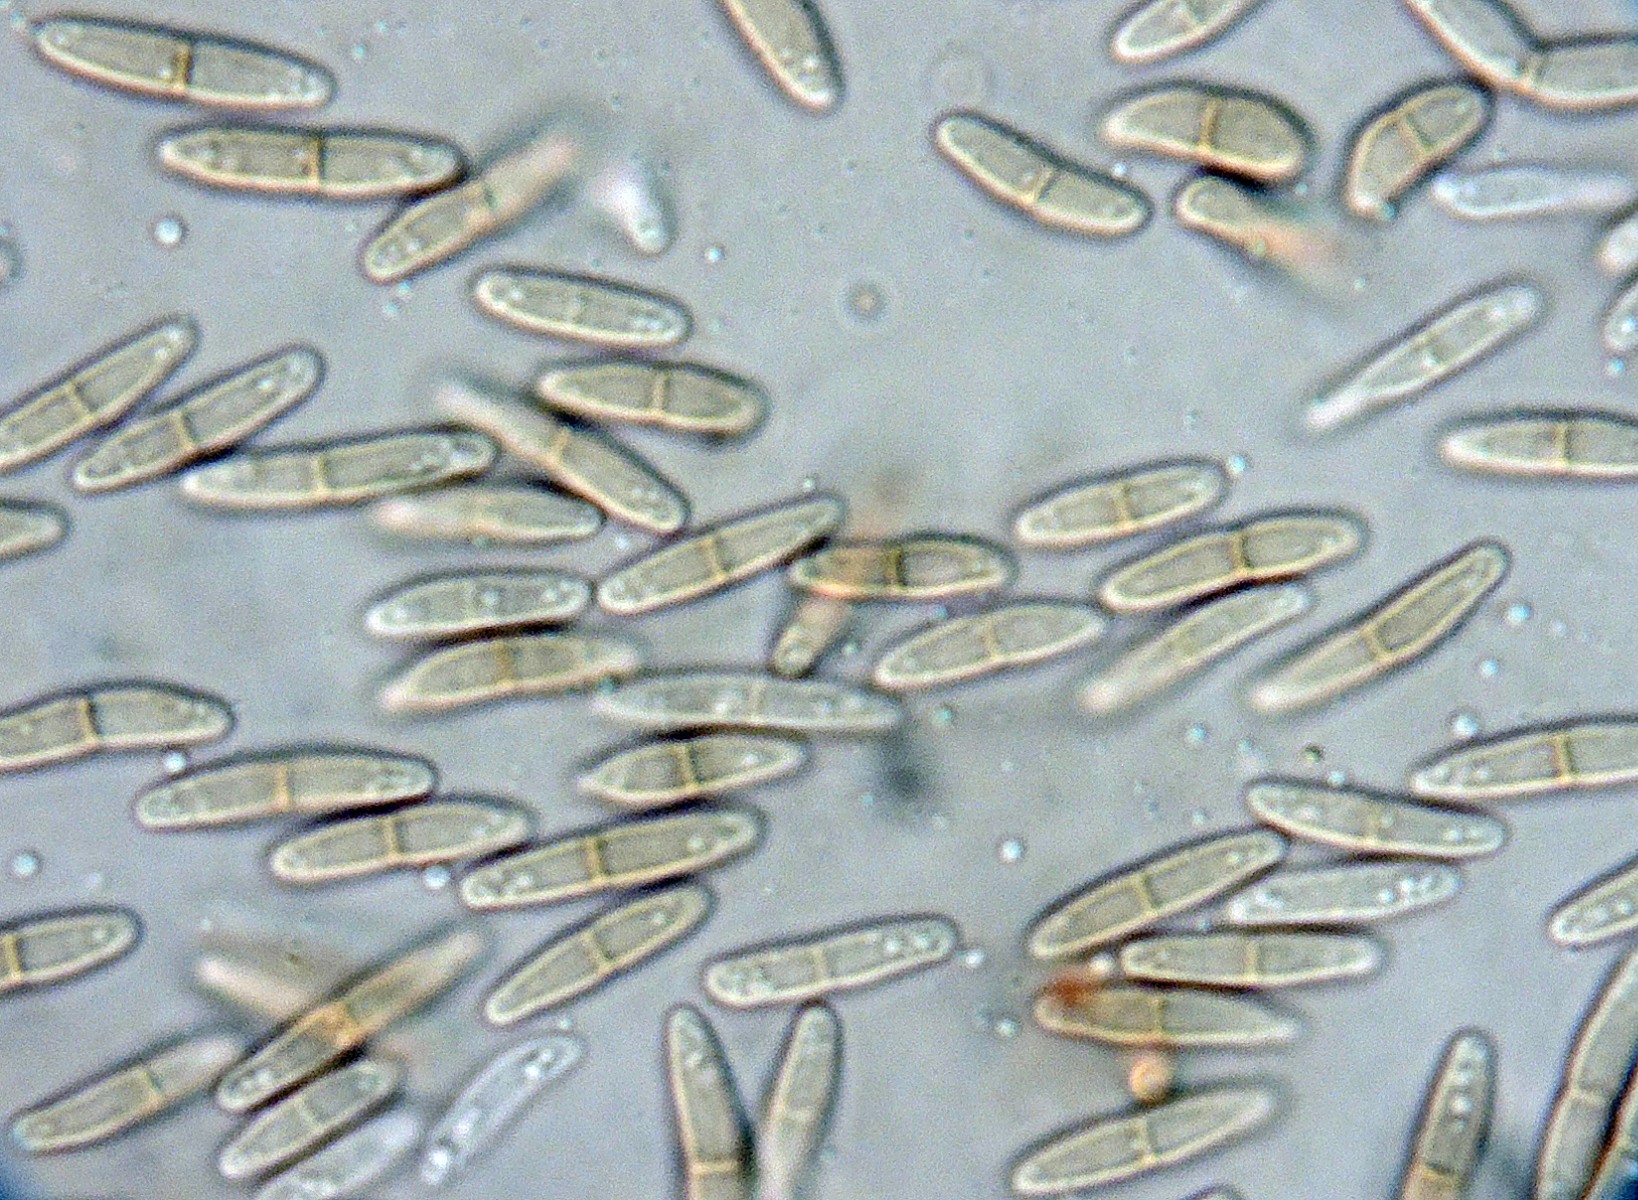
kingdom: Fungi
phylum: Ascomycota
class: Dothideomycetes
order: Pleosporales
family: Didymellaceae
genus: Ascochyta
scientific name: Ascochyta deformis
